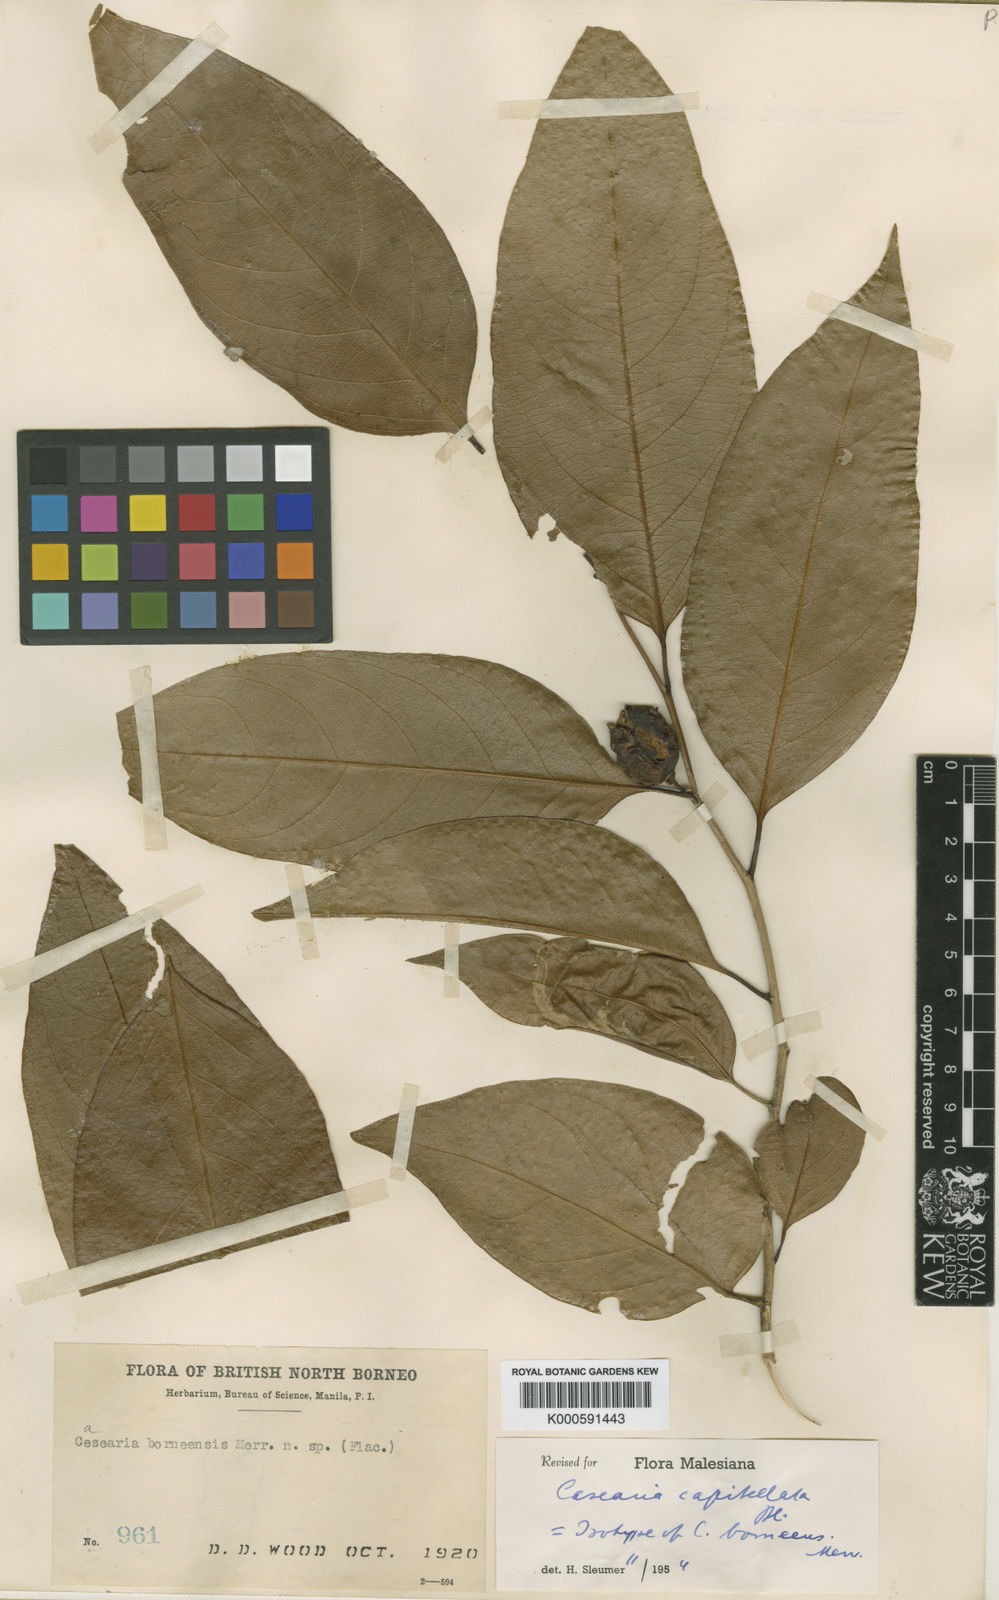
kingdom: Plantae
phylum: Tracheophyta
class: Magnoliopsida
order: Malpighiales
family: Salicaceae
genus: Casearia
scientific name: Casearia capitellata
